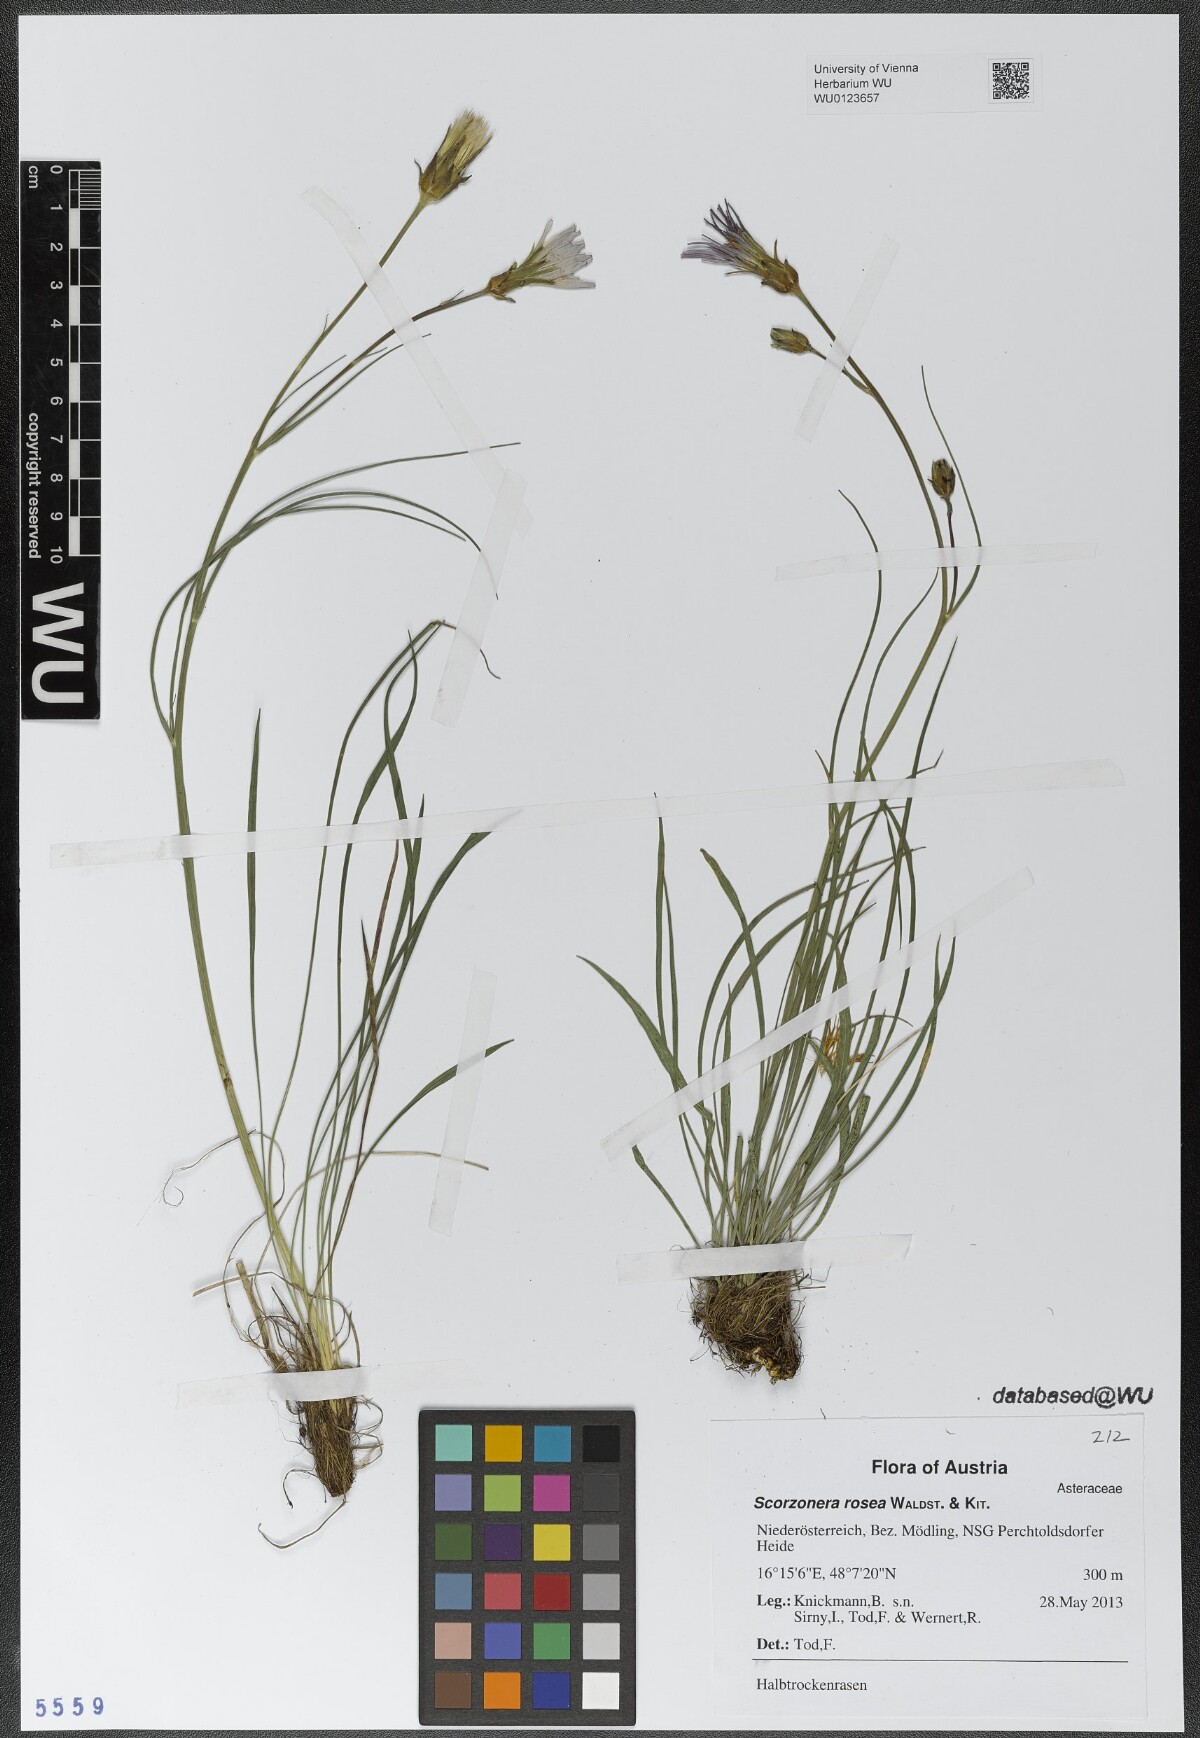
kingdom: Plantae
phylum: Tracheophyta
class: Magnoliopsida
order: Asterales
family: Asteraceae
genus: Scorzonera
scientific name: Scorzonera rosea
